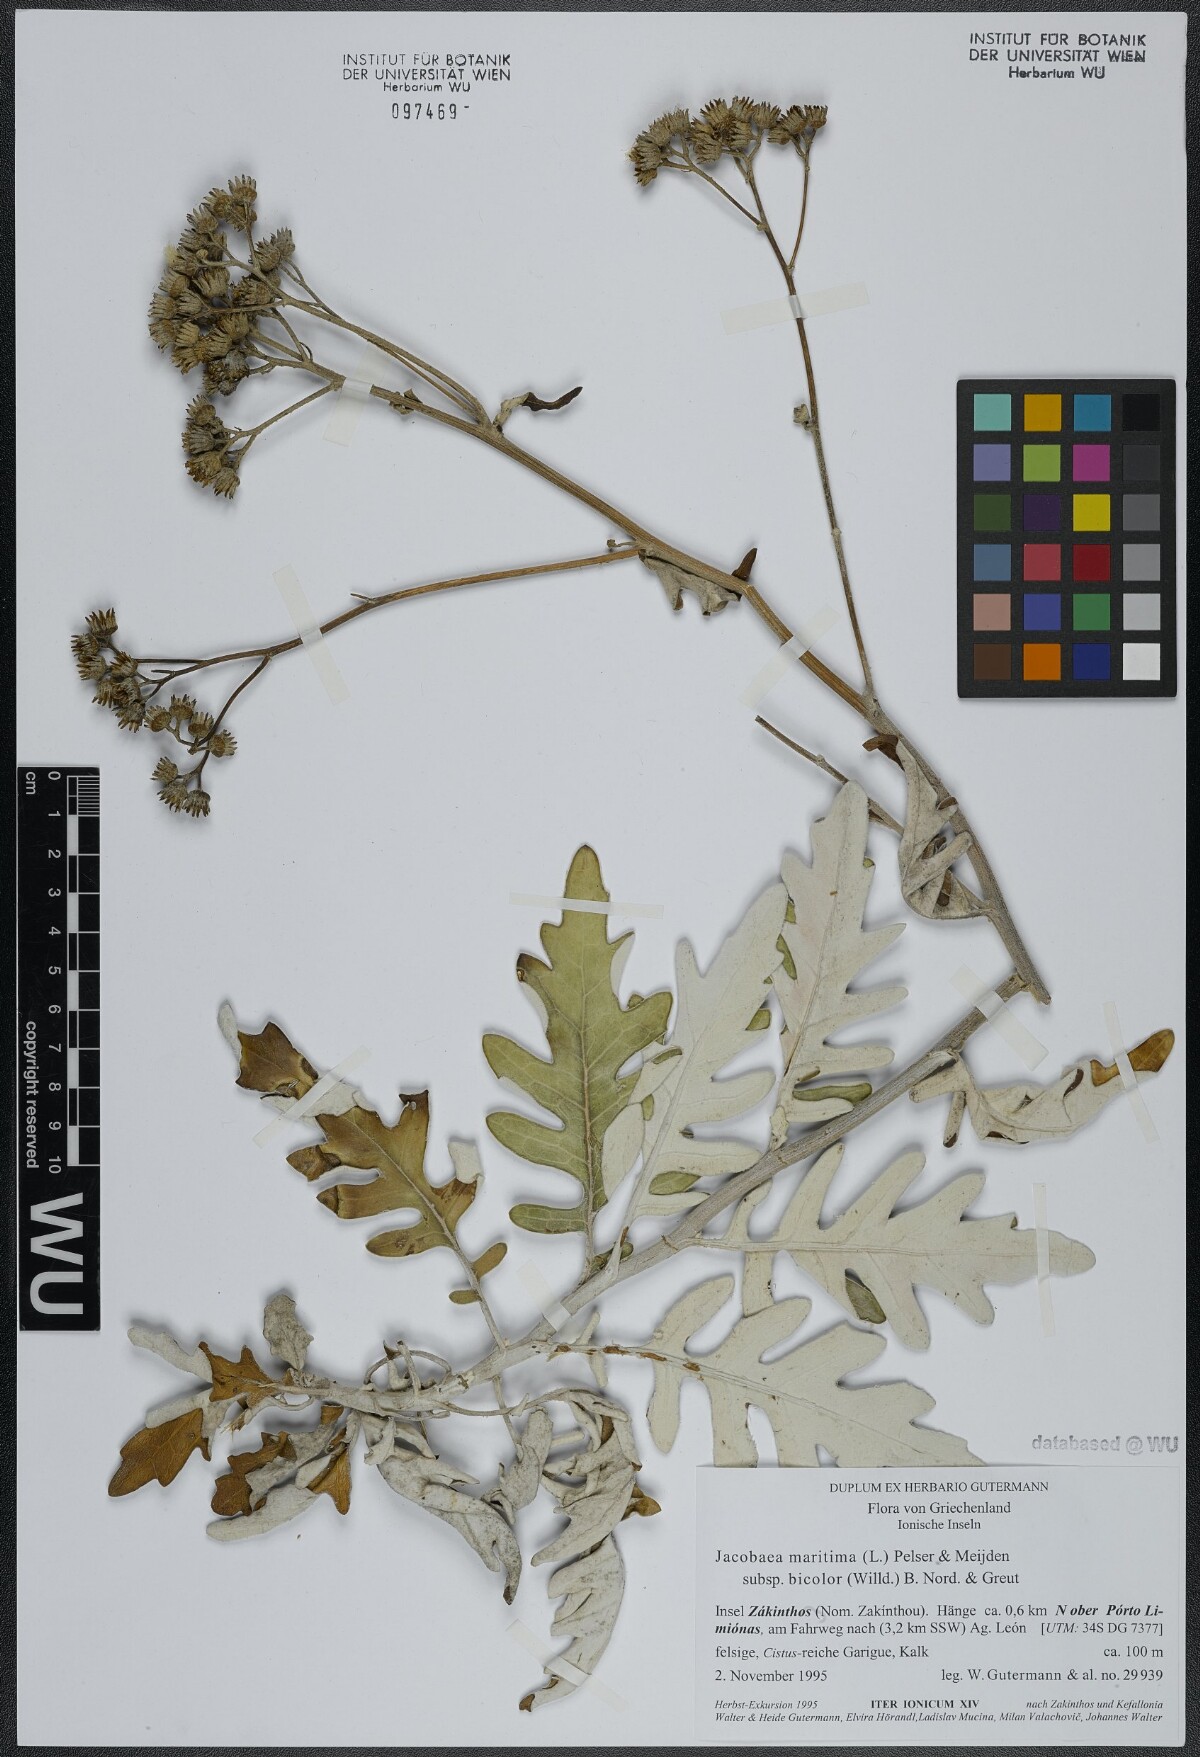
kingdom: Plantae
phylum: Tracheophyta
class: Magnoliopsida
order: Asterales
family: Asteraceae
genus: Jacobaea
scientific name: Jacobaea maritima
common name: Silver ragwort
